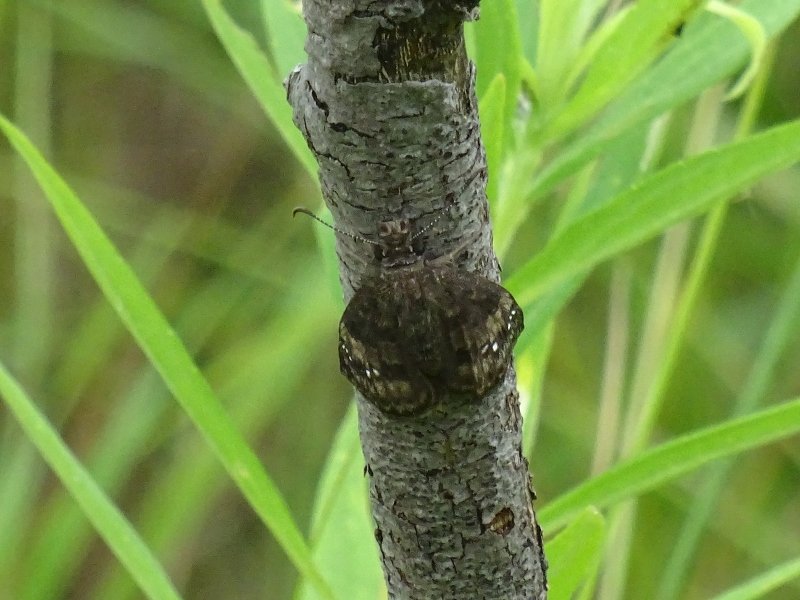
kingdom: Animalia
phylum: Arthropoda
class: Insecta
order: Lepidoptera
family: Hesperiidae
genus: Gesta
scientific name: Gesta
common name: Wild Indigo Duskywing
